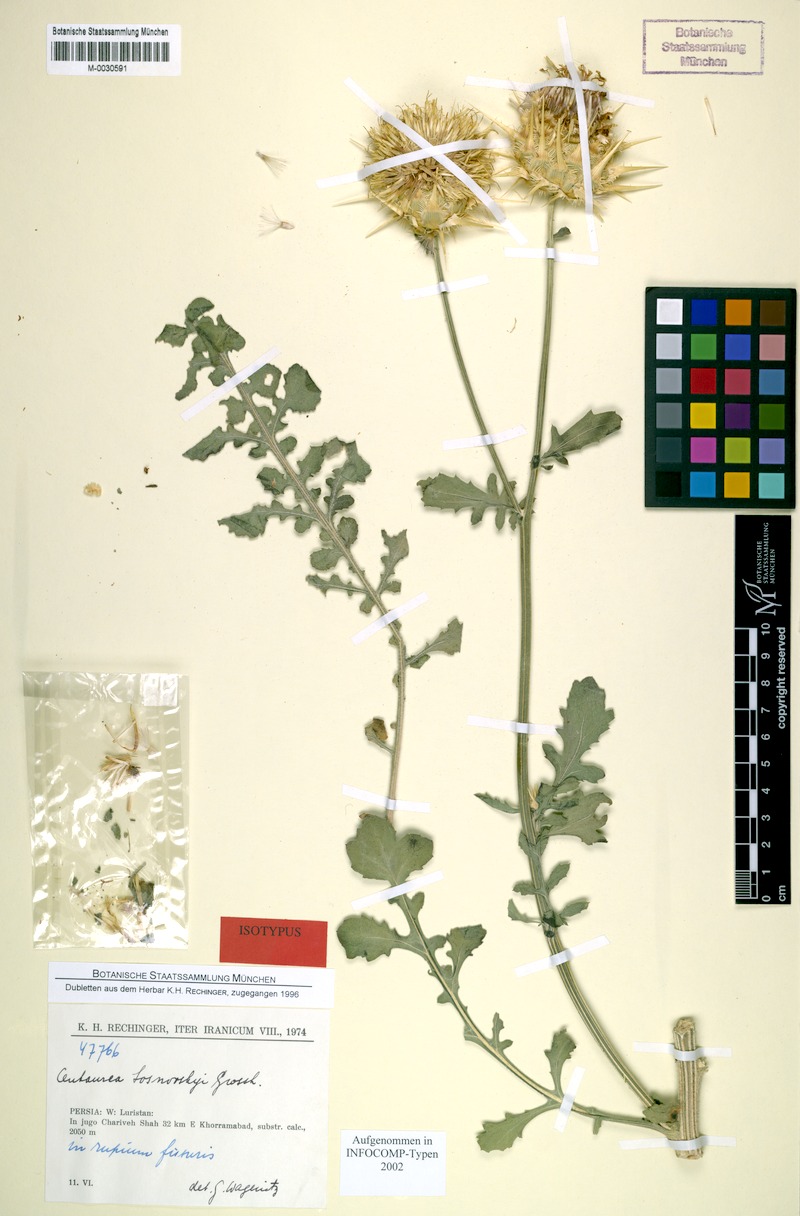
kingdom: Plantae
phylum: Tracheophyta
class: Magnoliopsida
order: Asterales
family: Asteraceae
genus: Centaurea
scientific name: Centaurea reflexa
